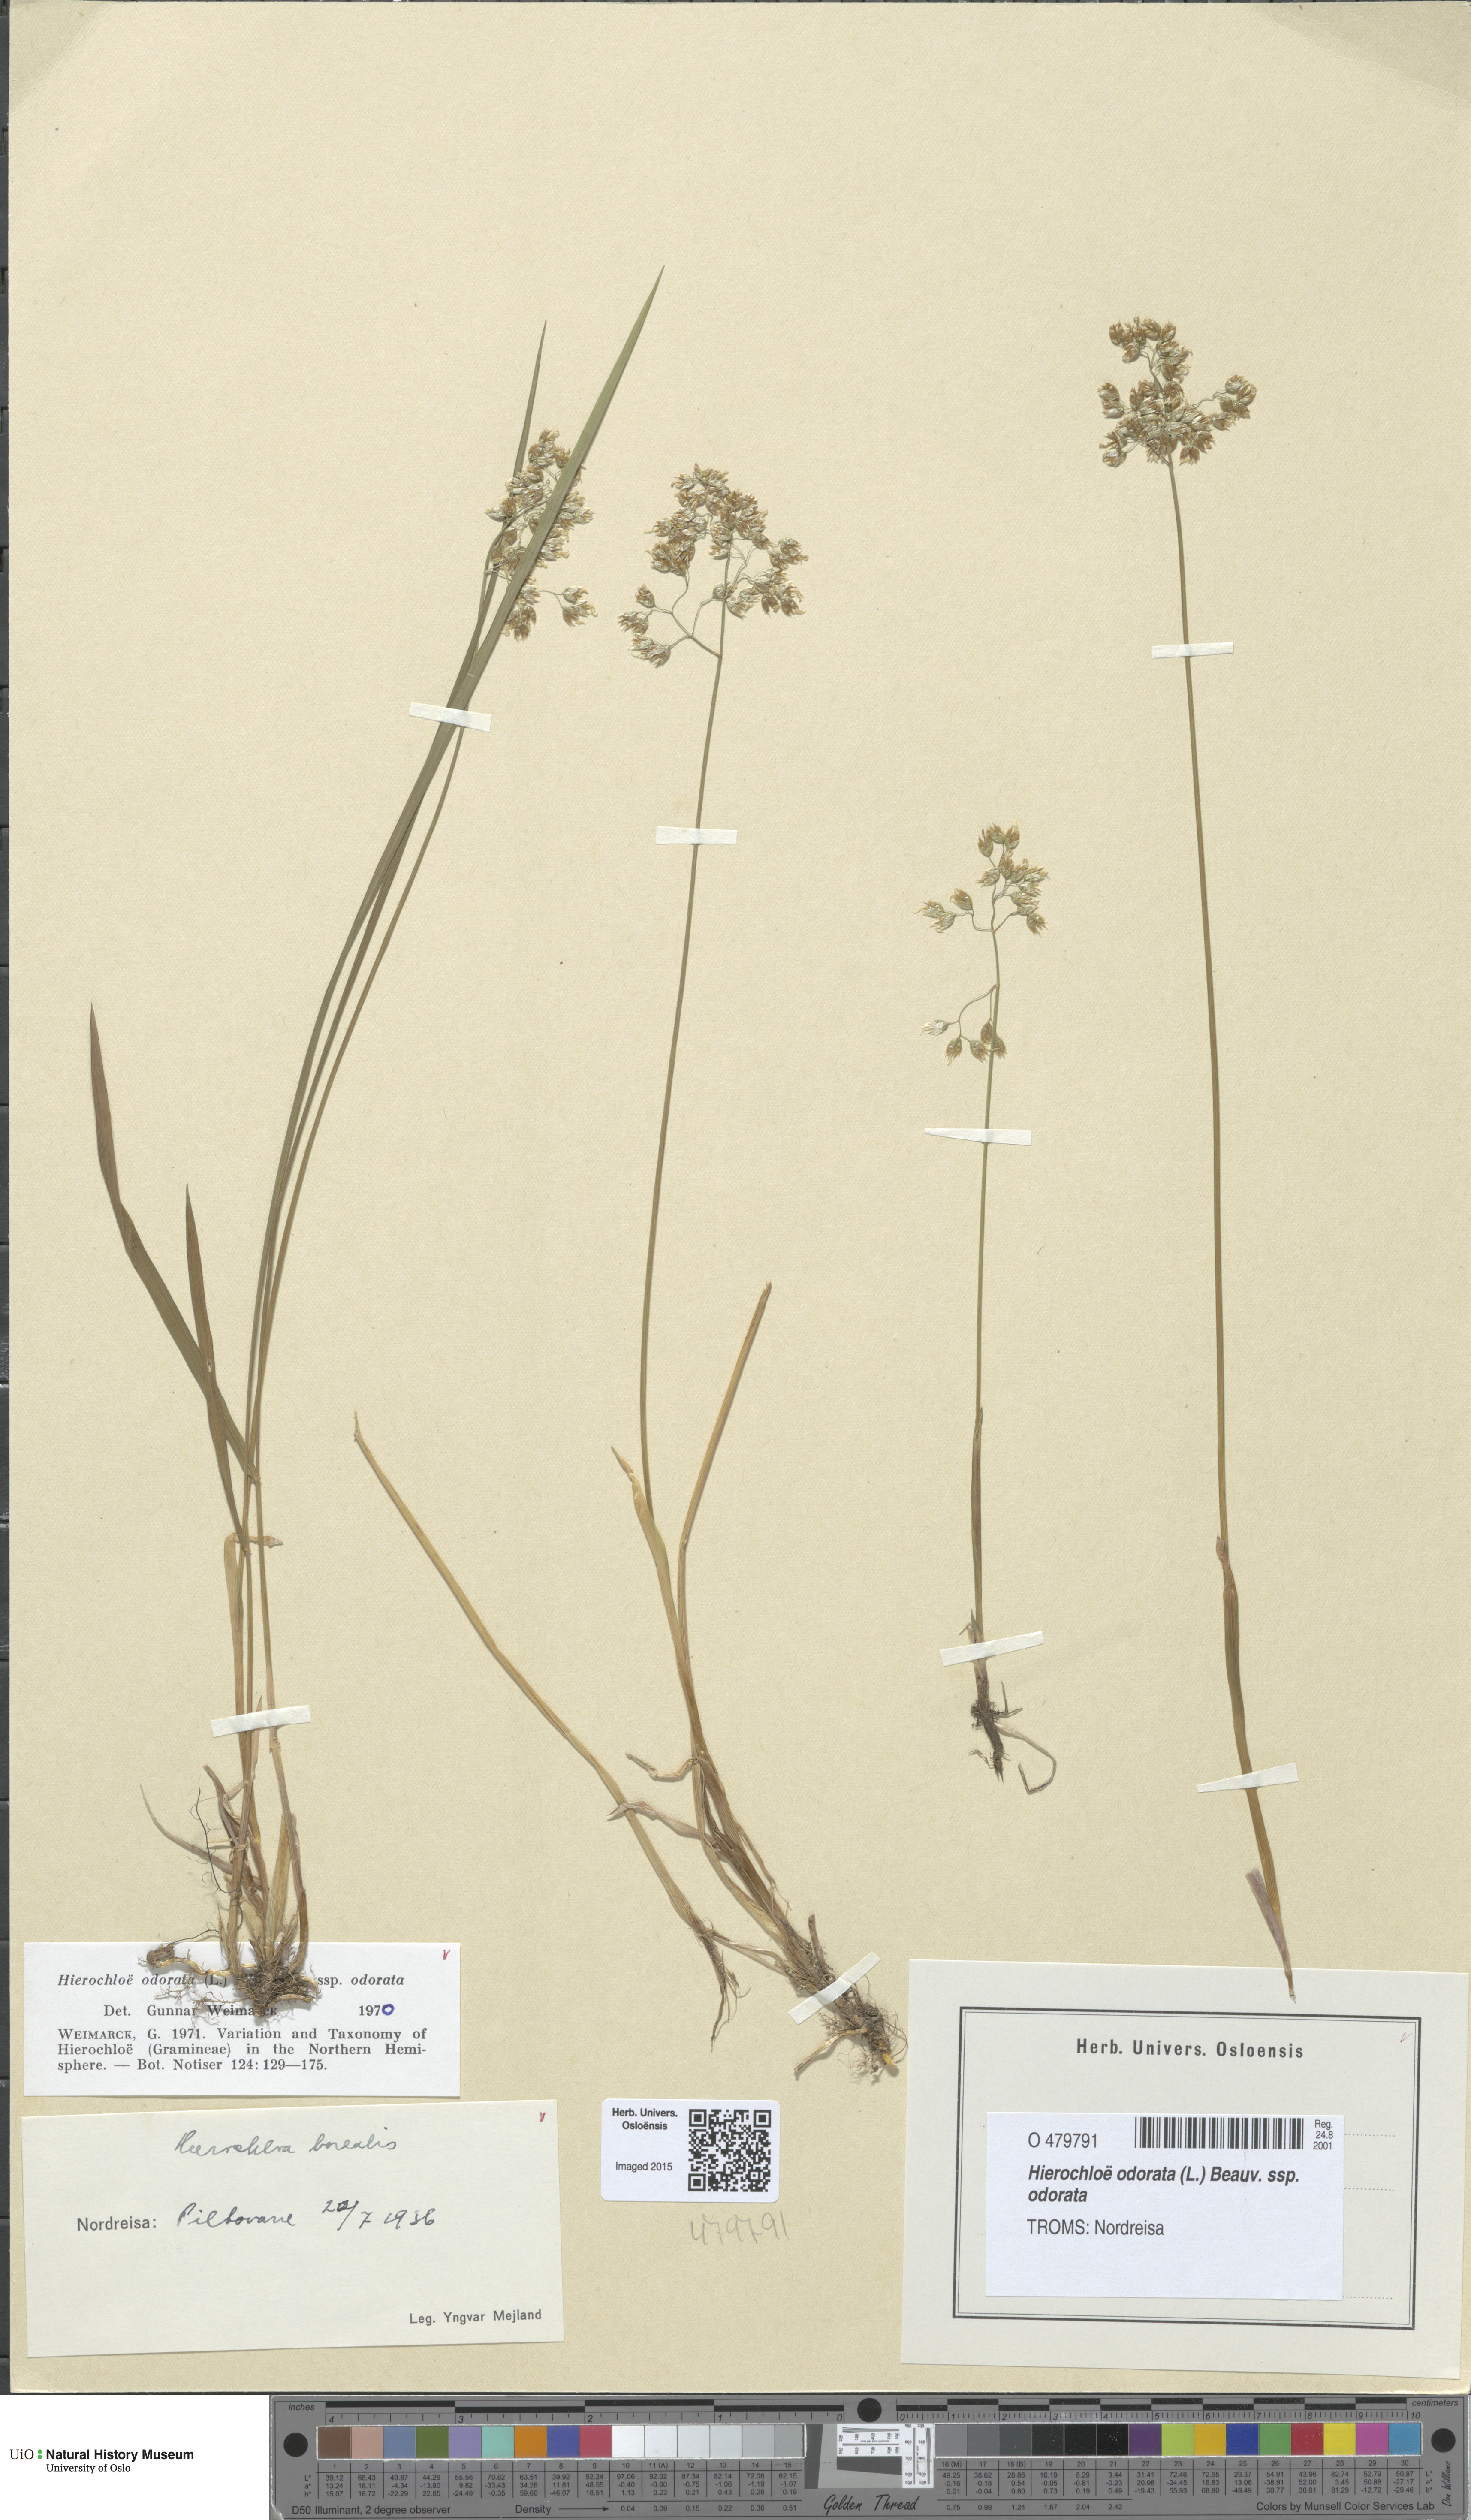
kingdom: Plantae
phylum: Tracheophyta
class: Liliopsida
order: Poales
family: Poaceae
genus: Anthoxanthum
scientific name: Anthoxanthum nitens
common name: Holy grass
